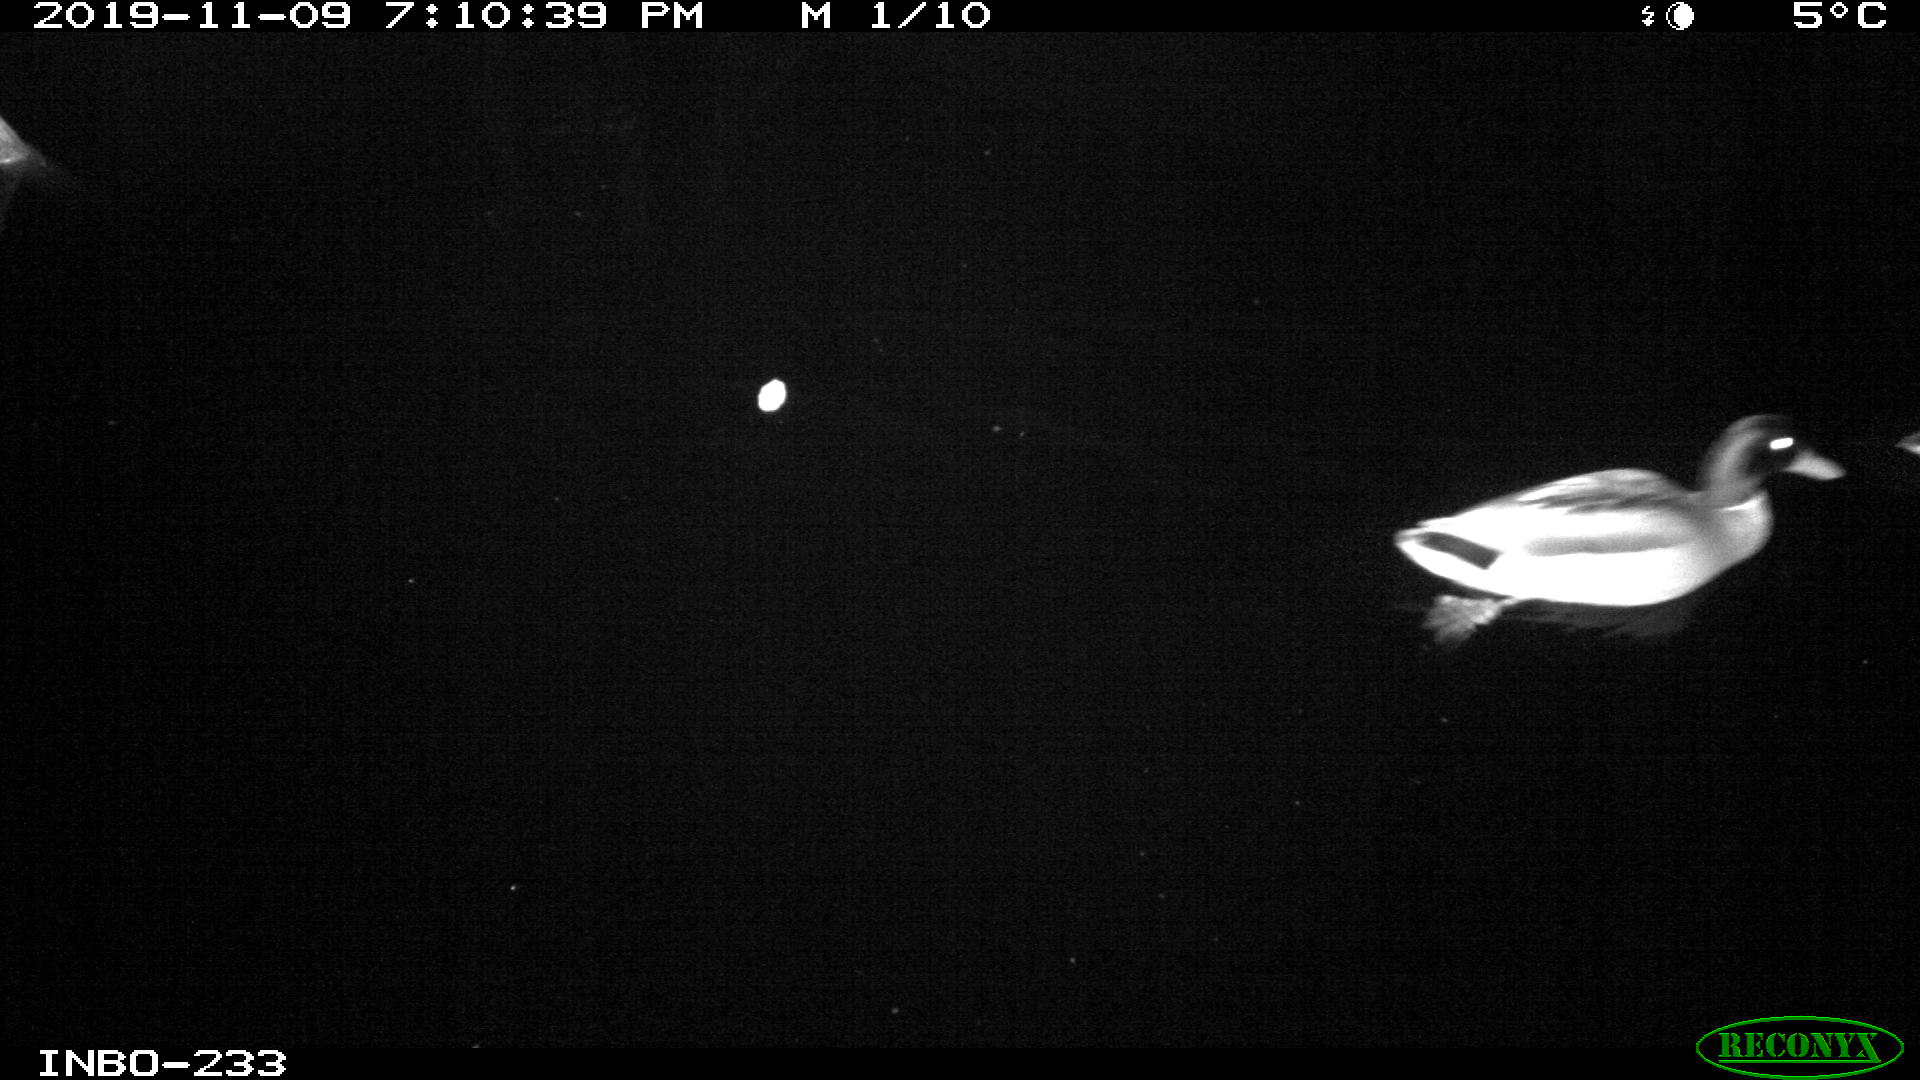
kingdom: Animalia
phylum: Chordata
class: Aves
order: Anseriformes
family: Anatidae
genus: Anas
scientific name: Anas platyrhynchos
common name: Mallard
